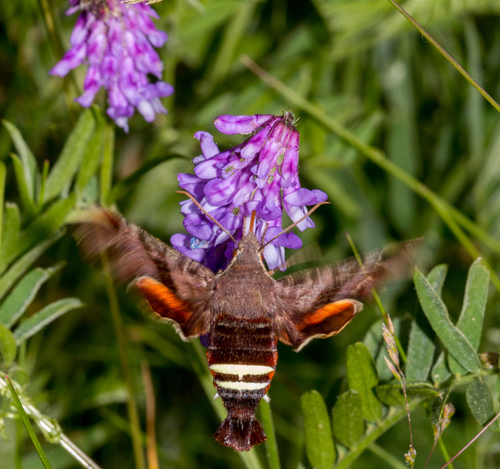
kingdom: Animalia
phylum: Arthropoda
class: Insecta
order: Lepidoptera
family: Sphingidae
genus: Amphion
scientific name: Amphion floridensis
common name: Nessus sphinx
